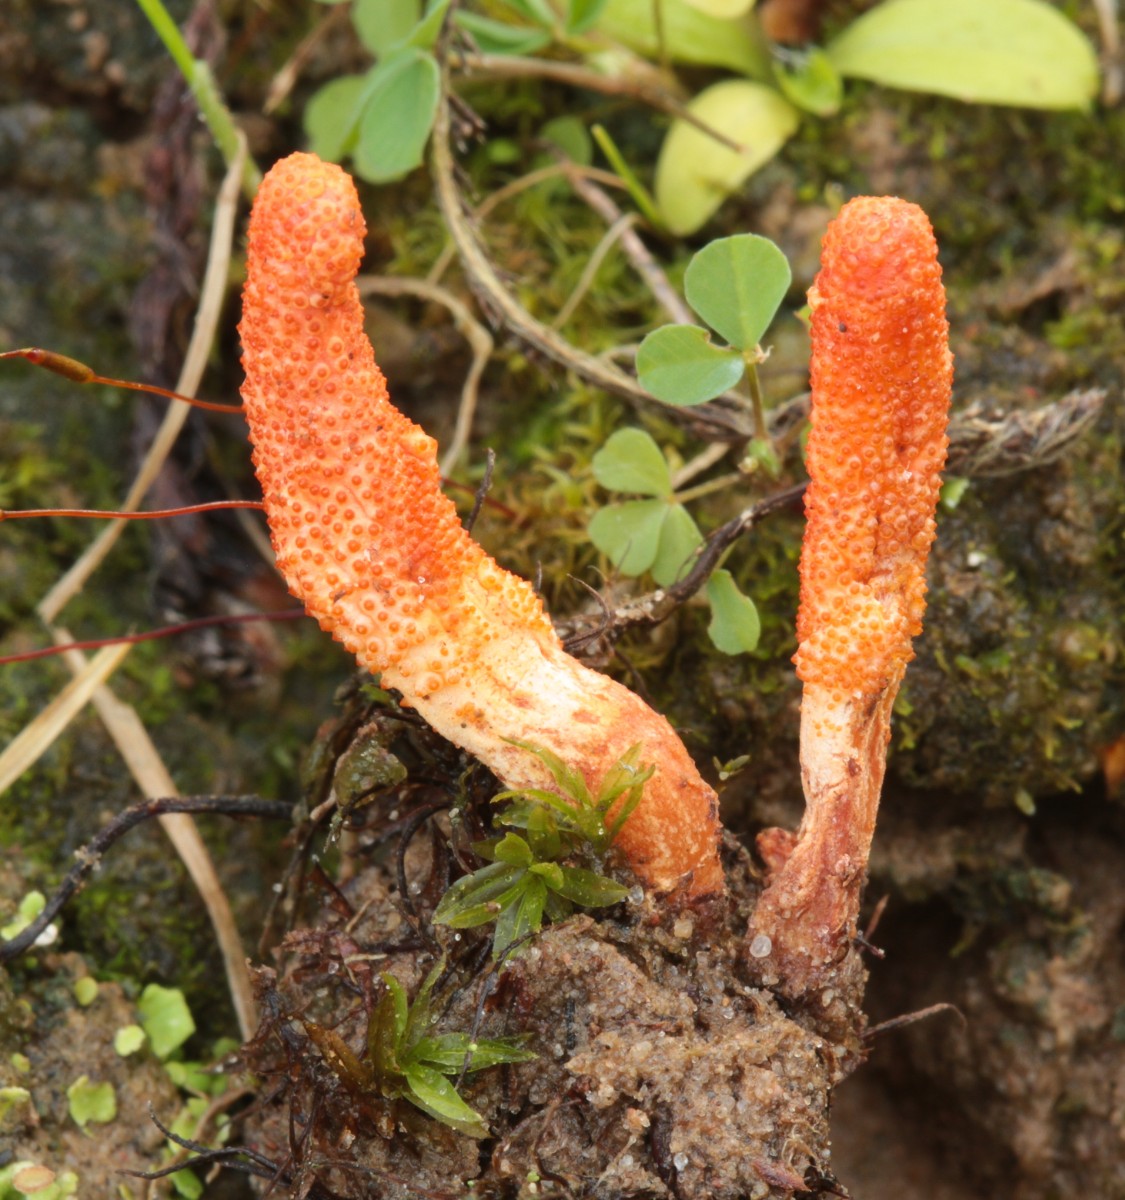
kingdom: Fungi
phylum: Ascomycota
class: Sordariomycetes
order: Hypocreales
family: Cordycipitaceae
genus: Cordyceps
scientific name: Cordyceps militaris
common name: puppe-snyltekølle
